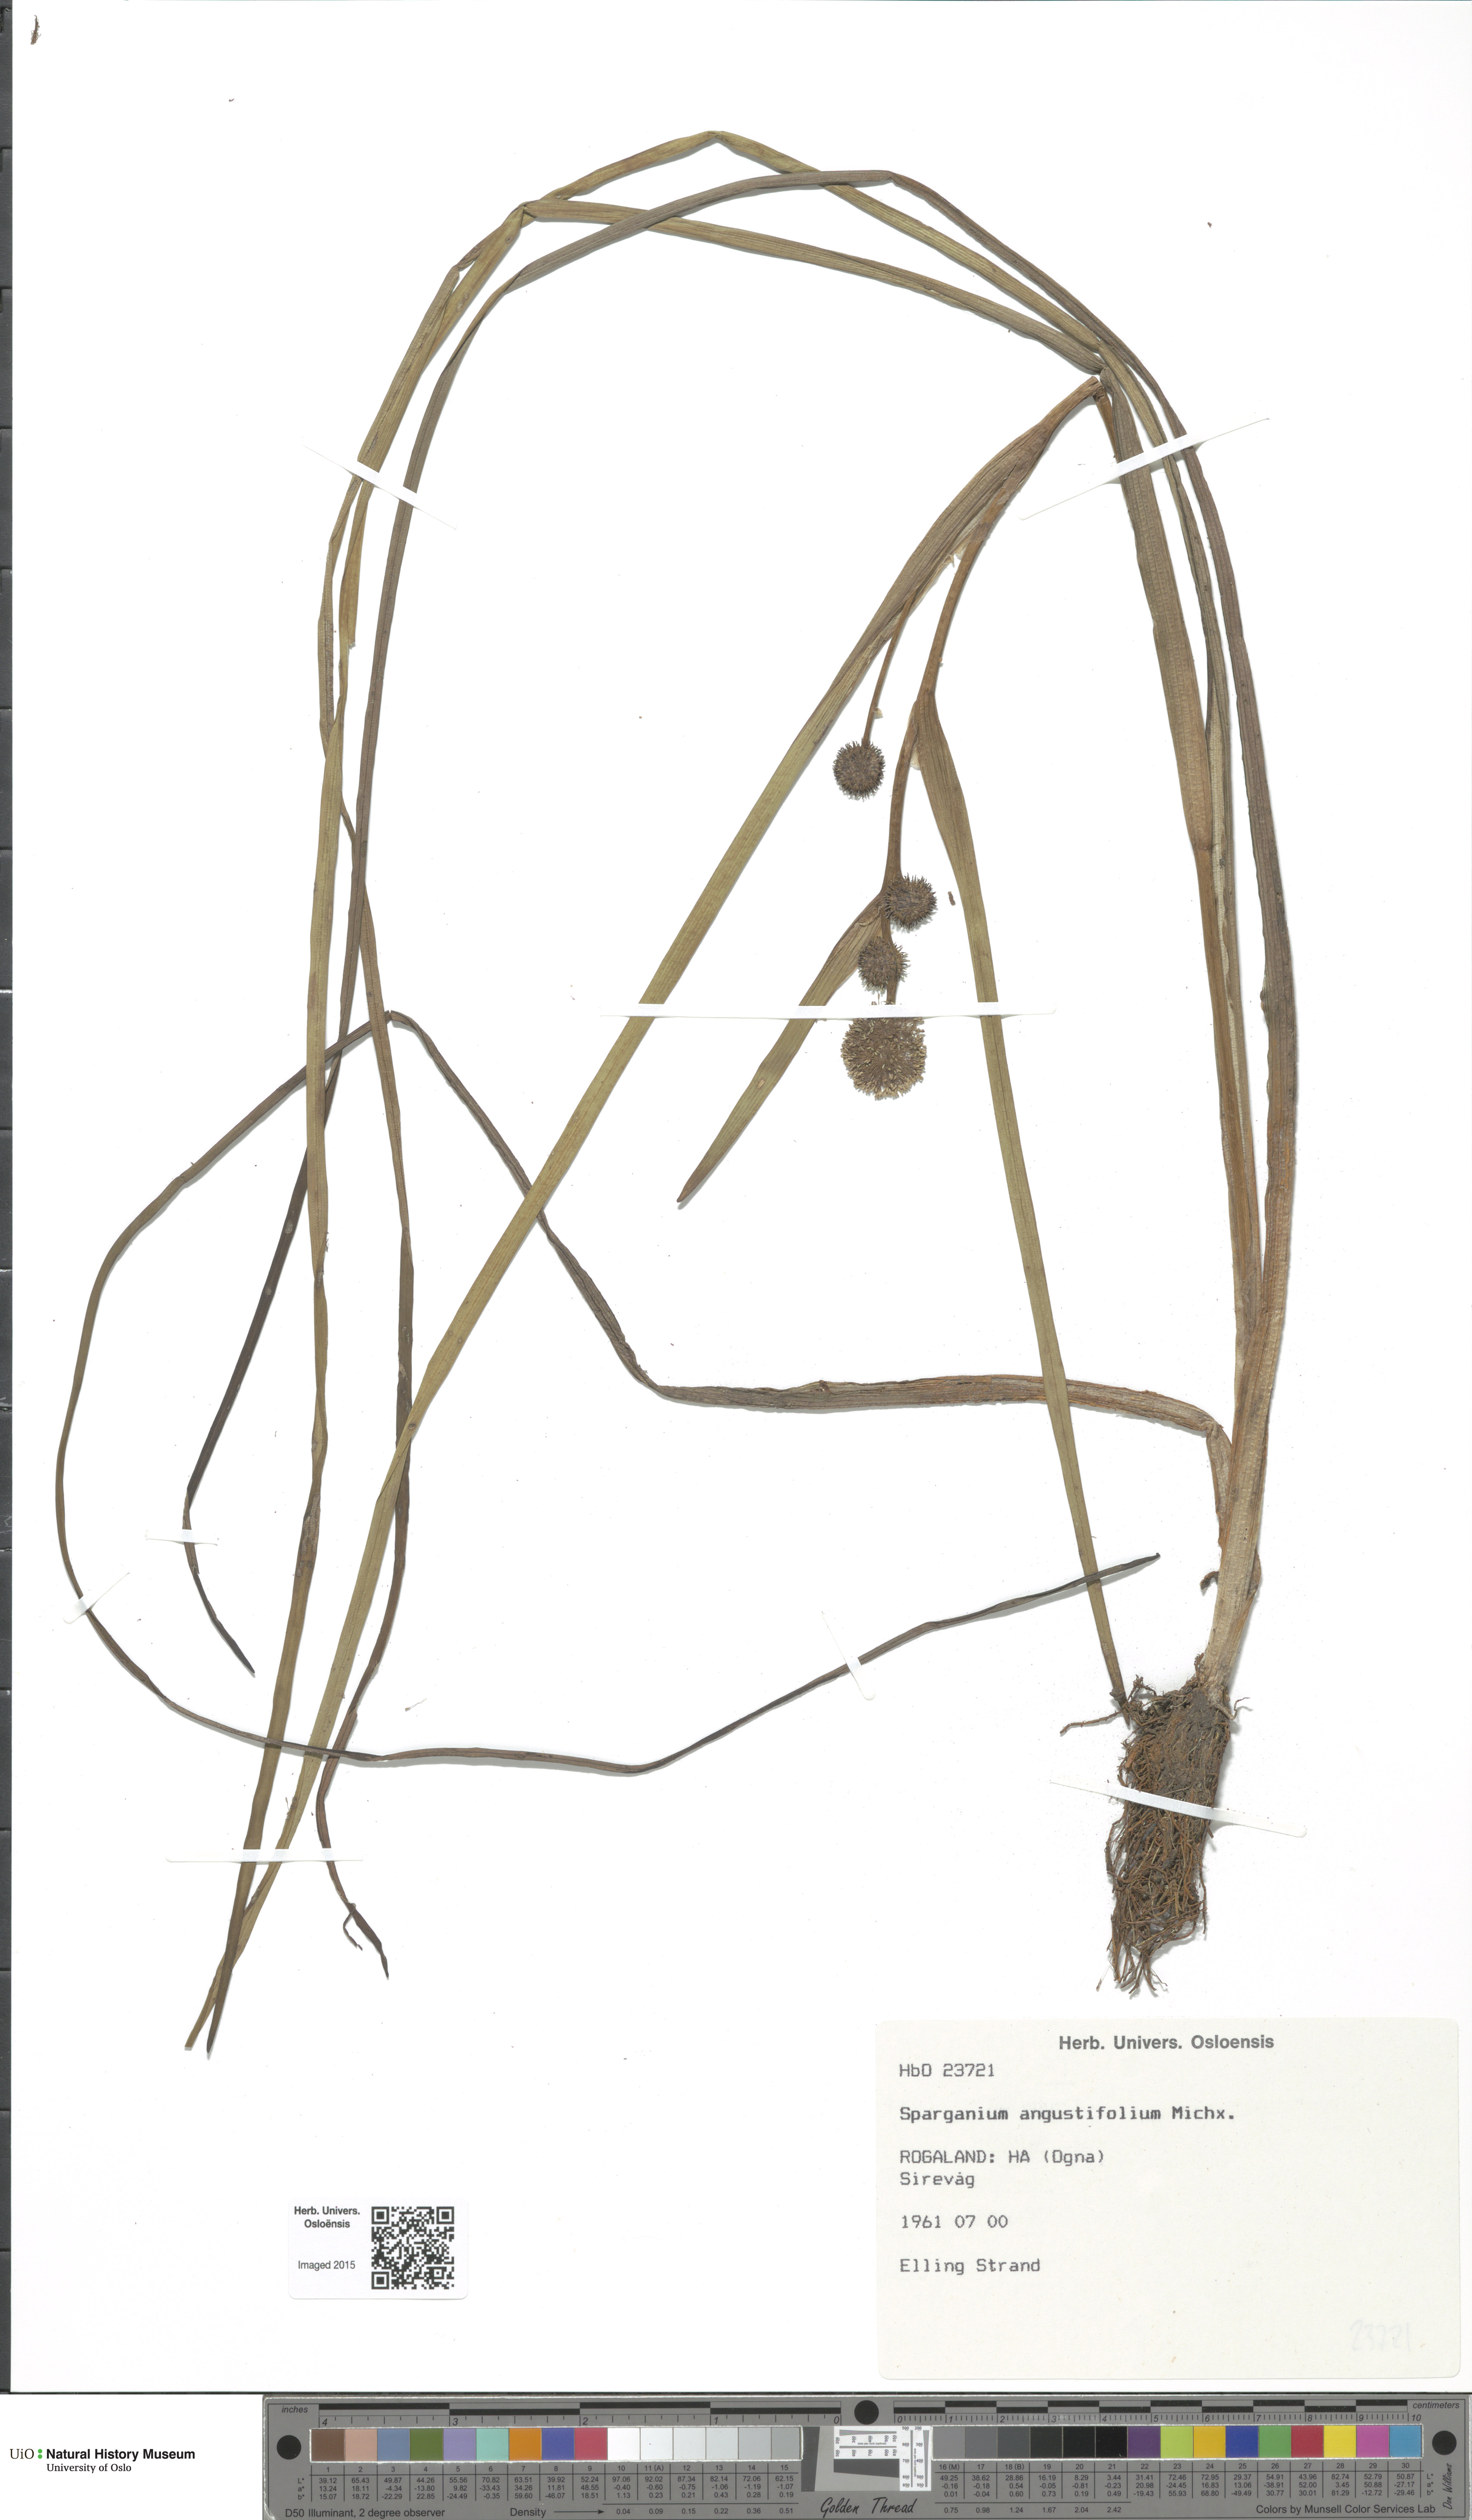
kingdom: Plantae
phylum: Tracheophyta
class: Liliopsida
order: Poales
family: Typhaceae
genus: Sparganium
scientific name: Sparganium angustifolium
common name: Floating bur-reed
